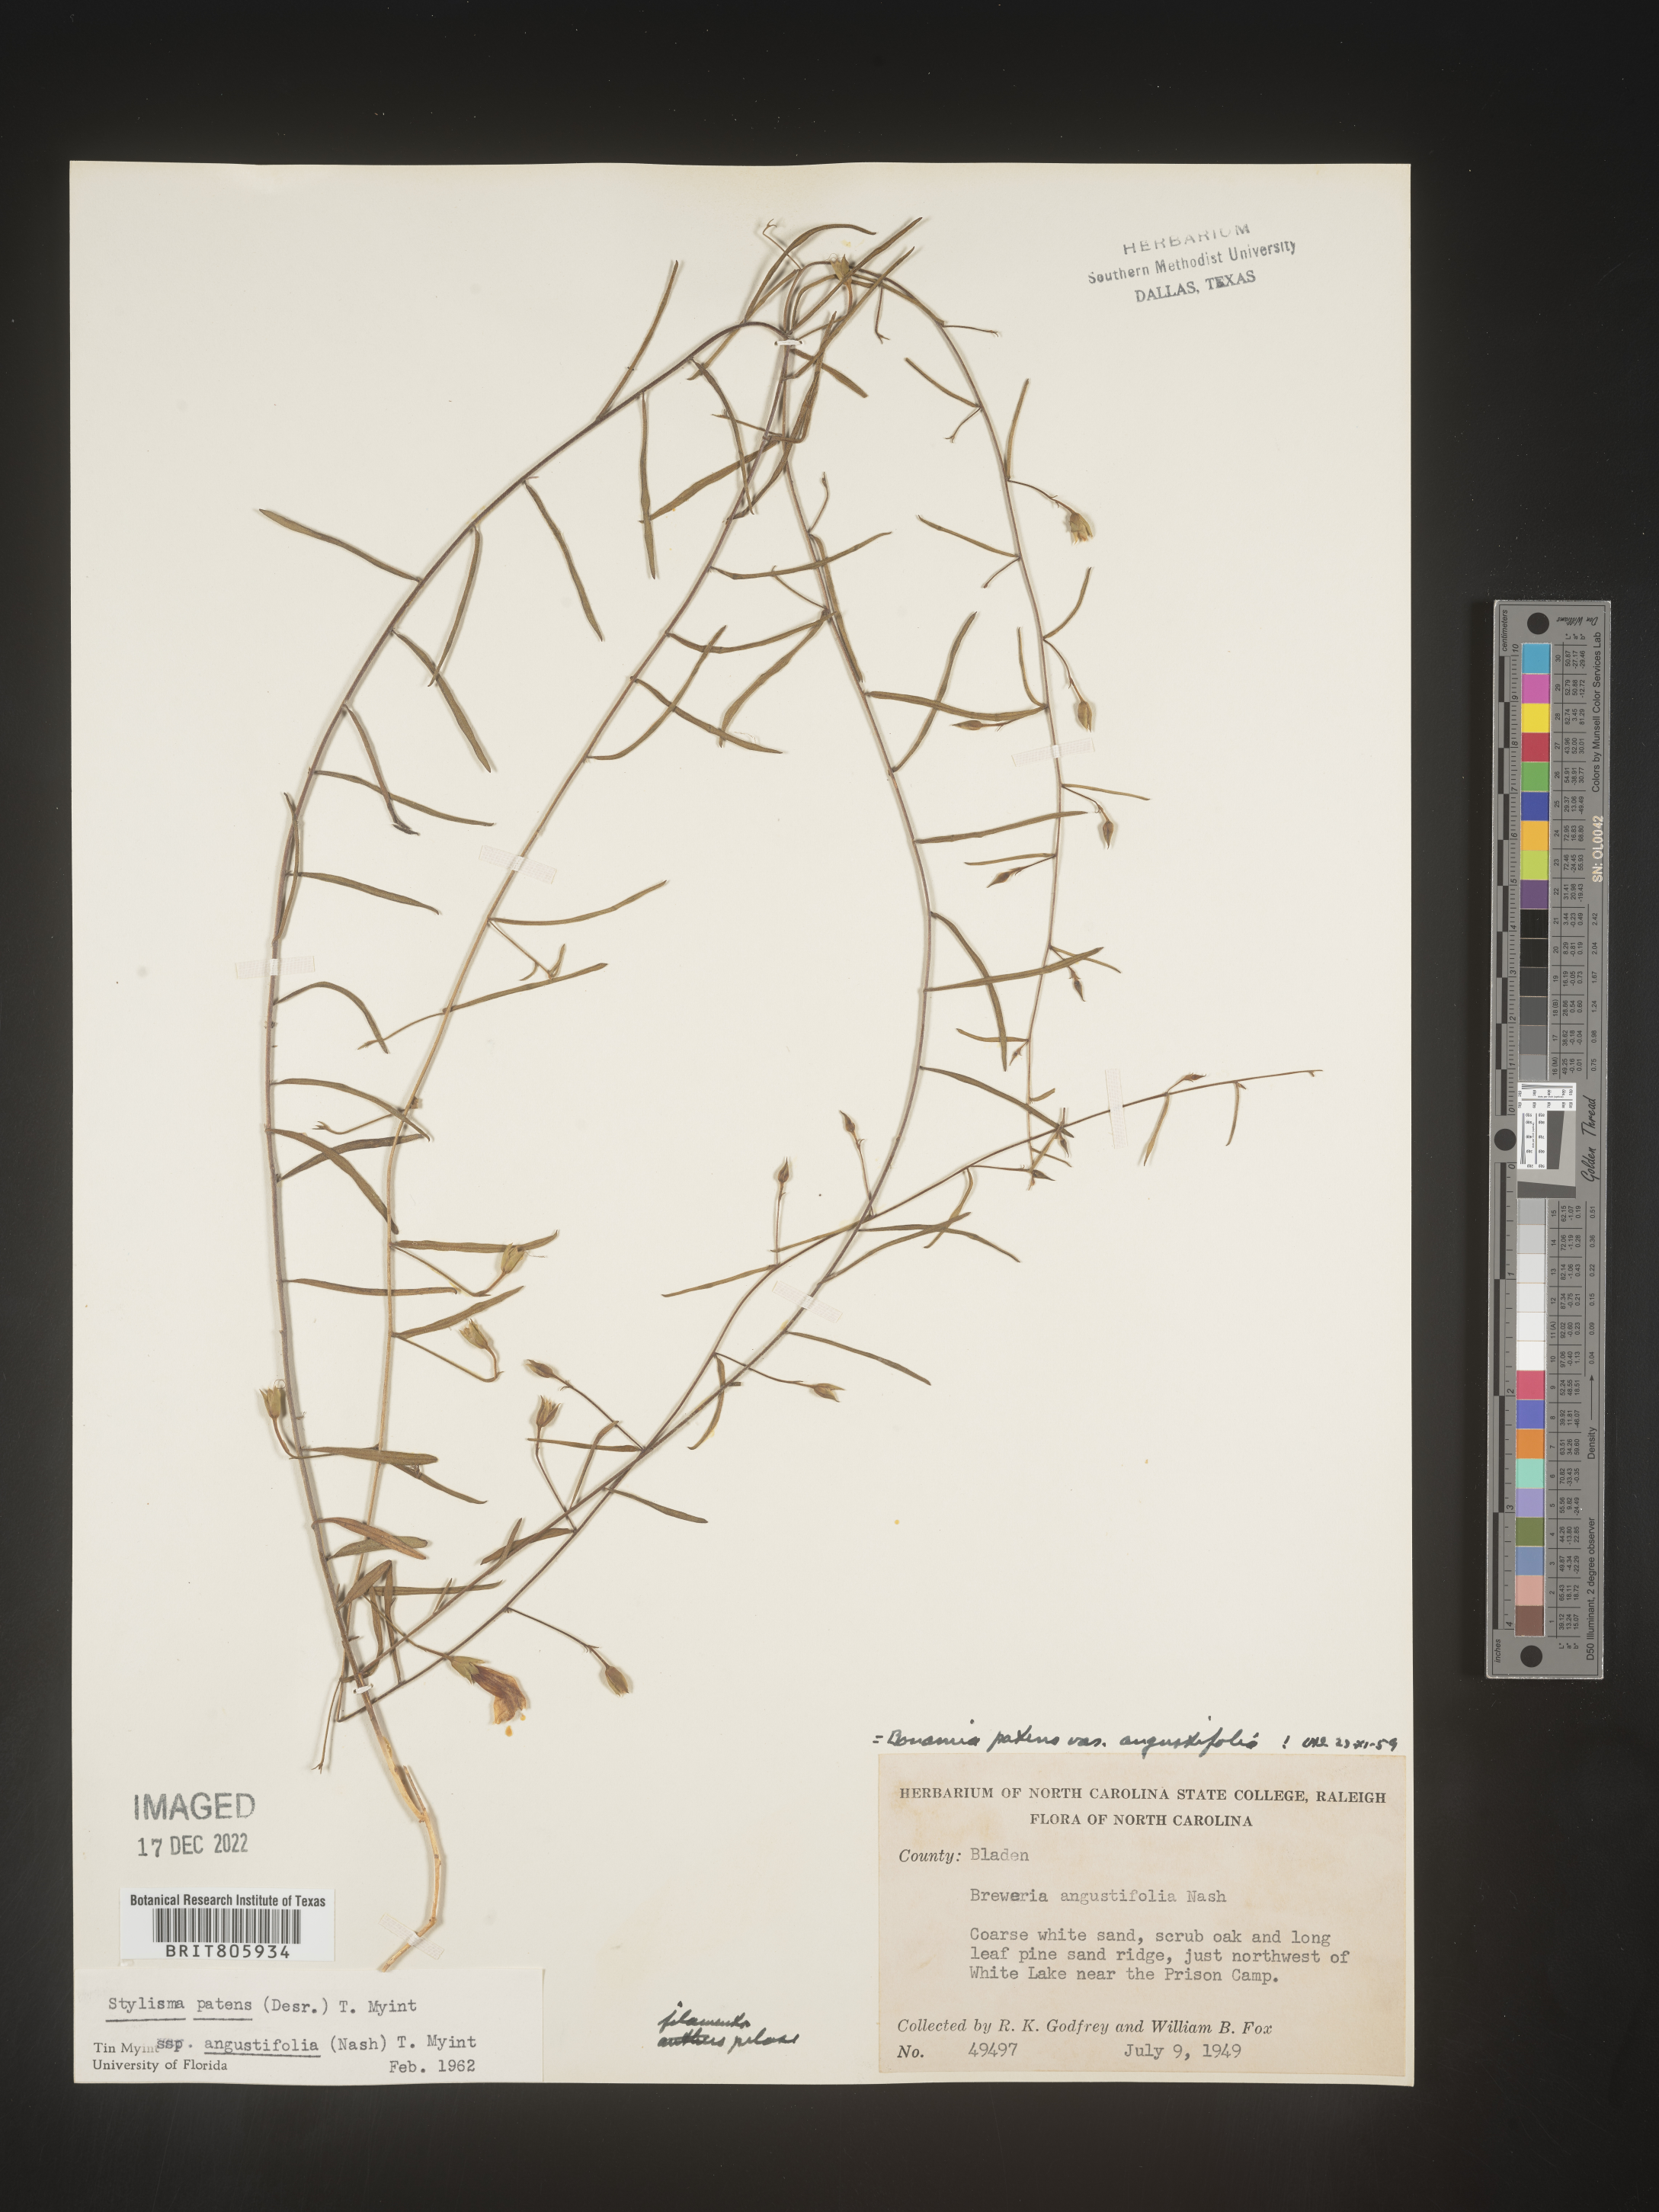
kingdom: Plantae
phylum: Tracheophyta
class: Magnoliopsida
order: Solanales
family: Convolvulaceae
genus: Stylisma
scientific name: Stylisma
